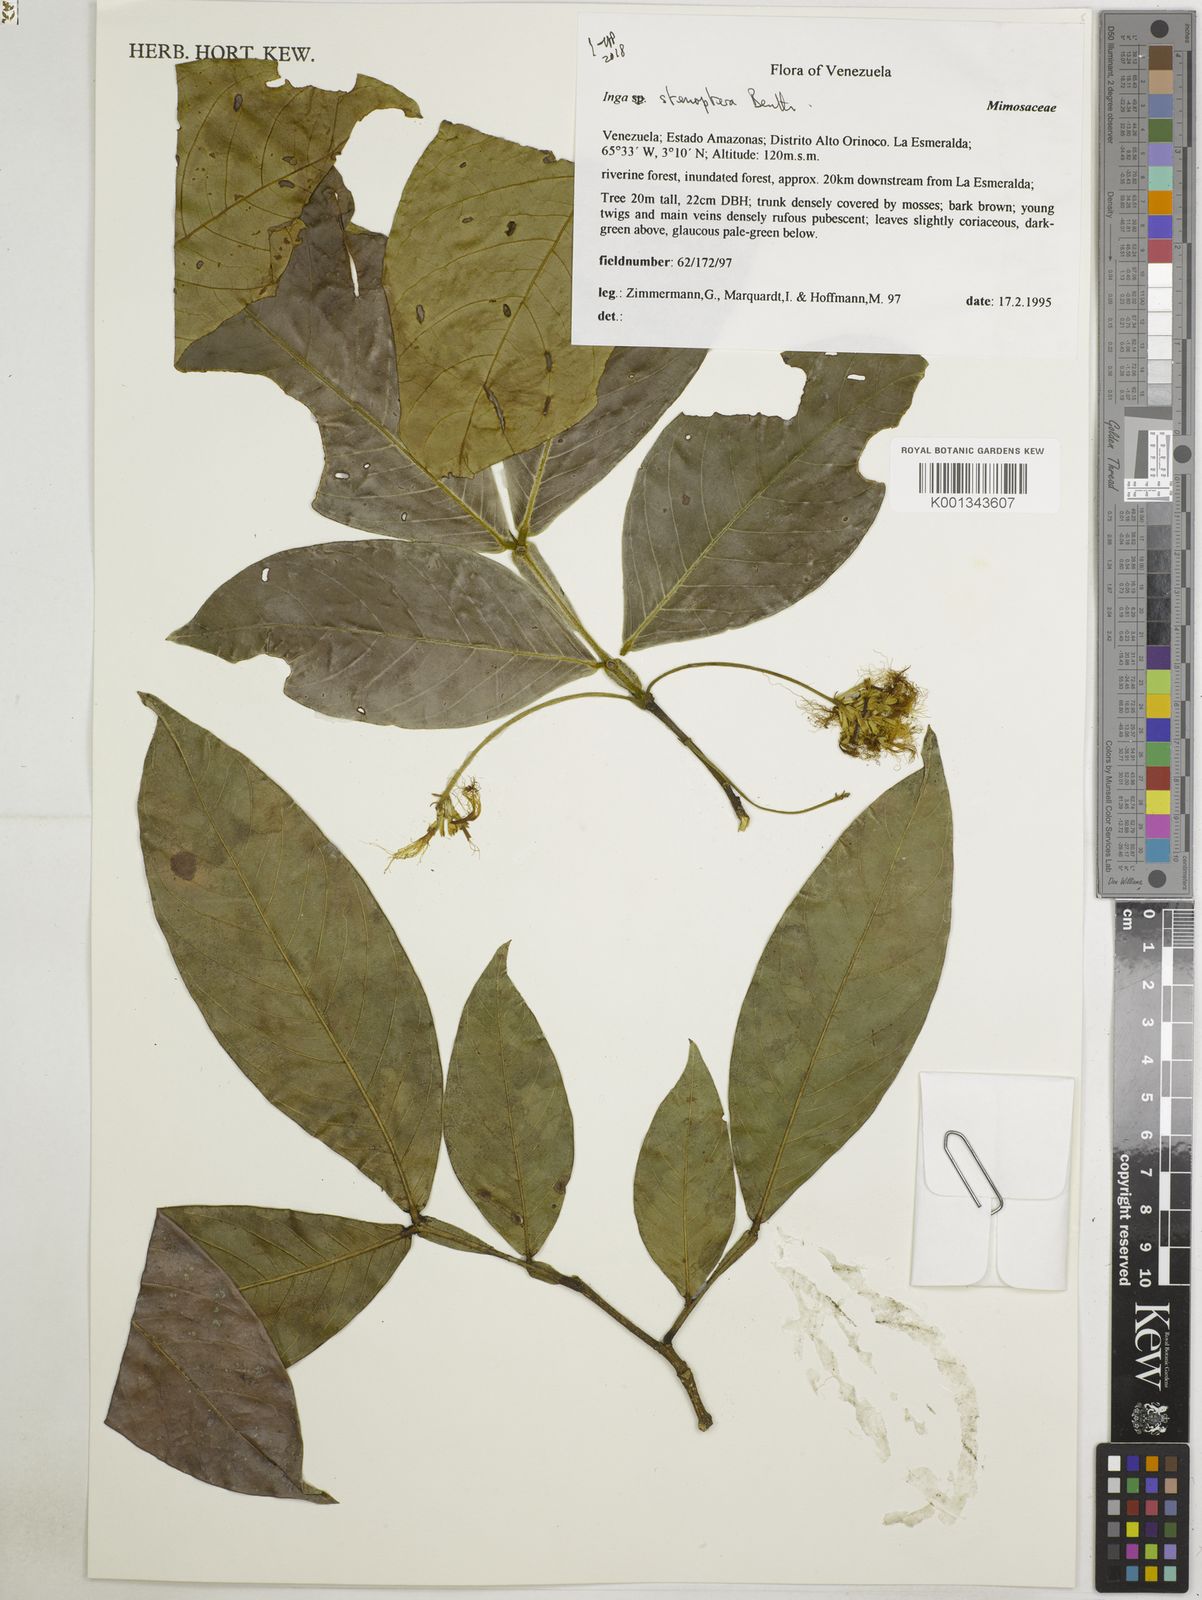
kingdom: Plantae
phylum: Tracheophyta
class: Magnoliopsida
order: Fabales
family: Fabaceae
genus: Inga
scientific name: Inga stenoptera
